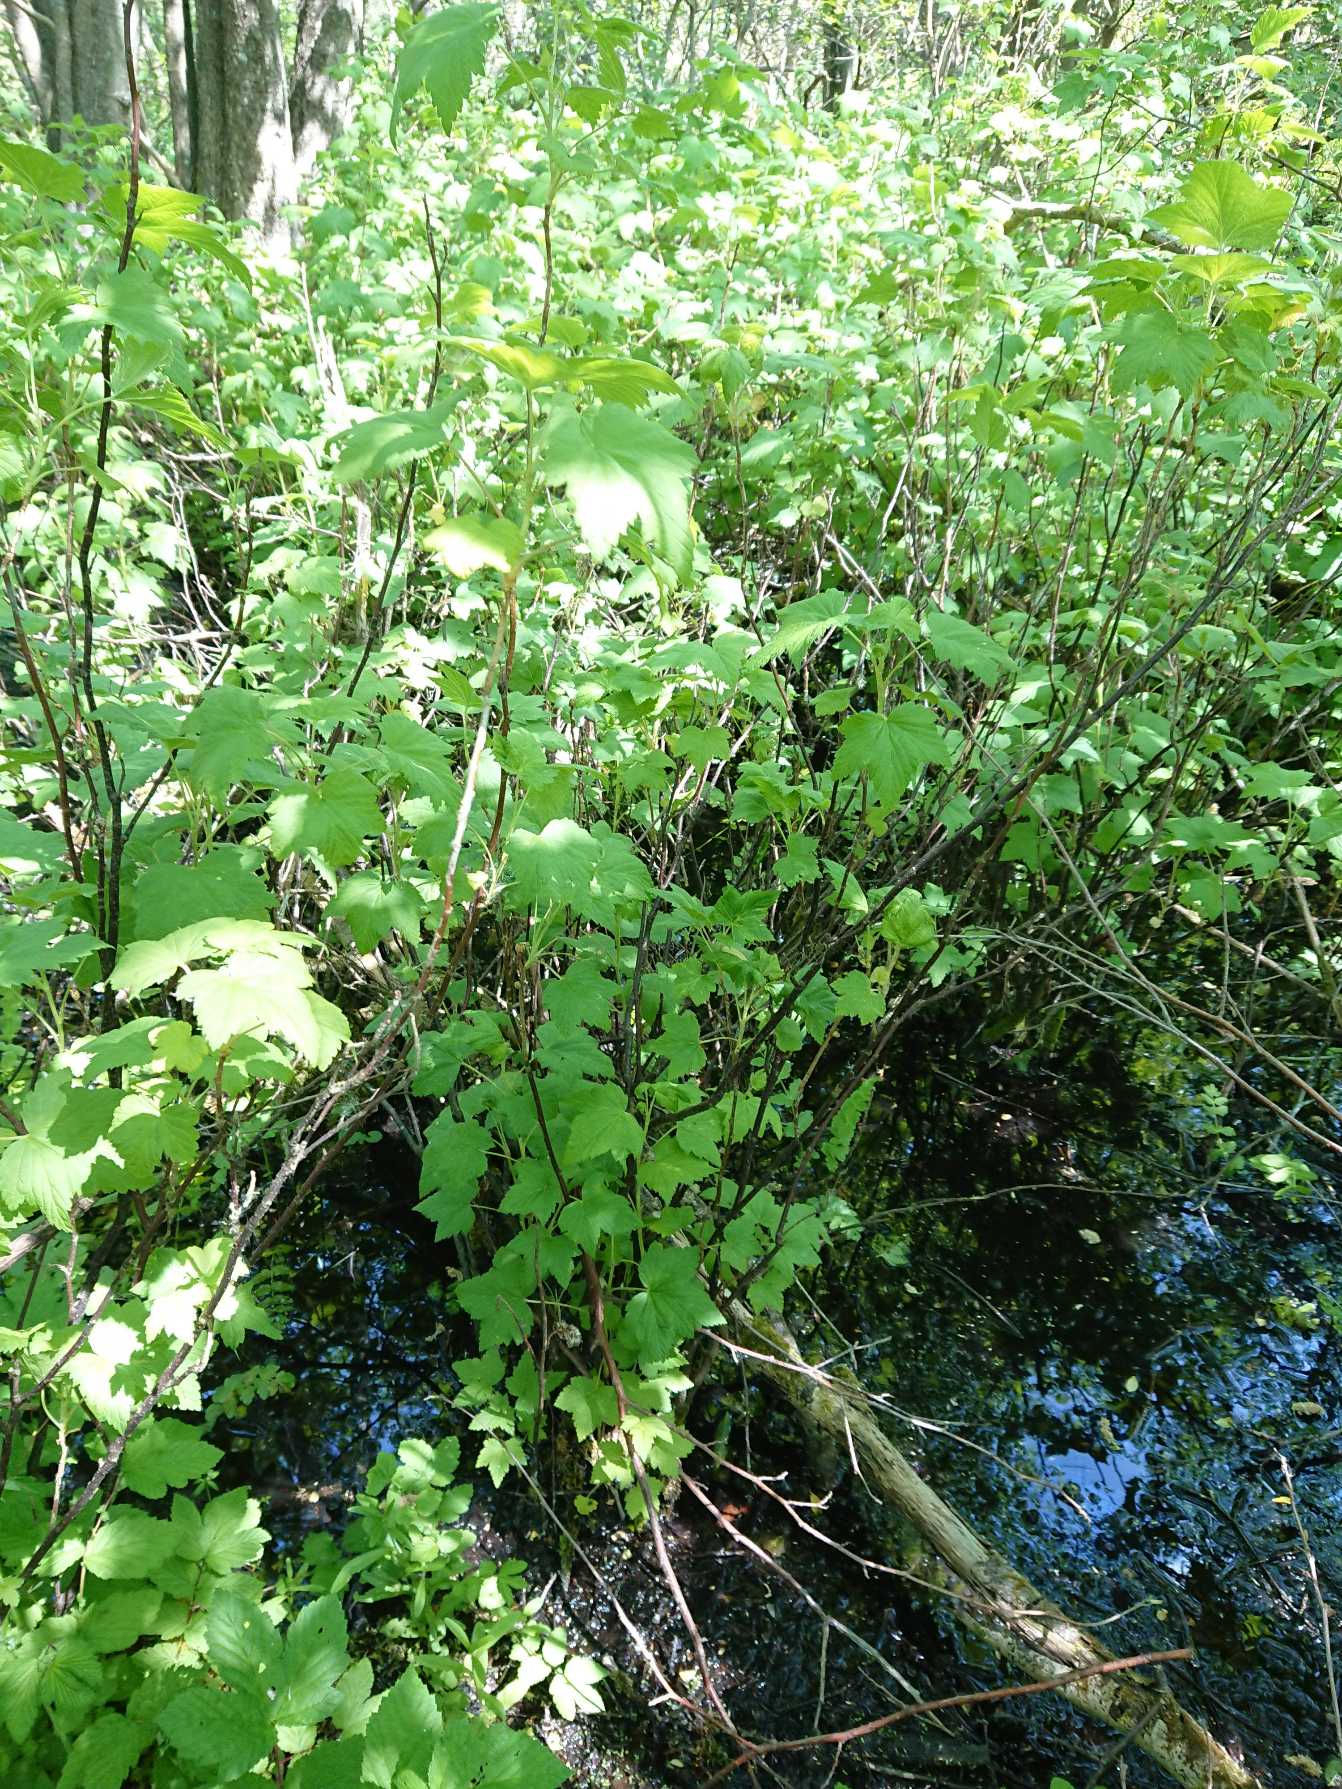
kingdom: Plantae
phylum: Tracheophyta
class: Magnoliopsida
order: Saxifragales
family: Grossulariaceae
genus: Ribes
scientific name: Ribes nigrum
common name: Solbær
